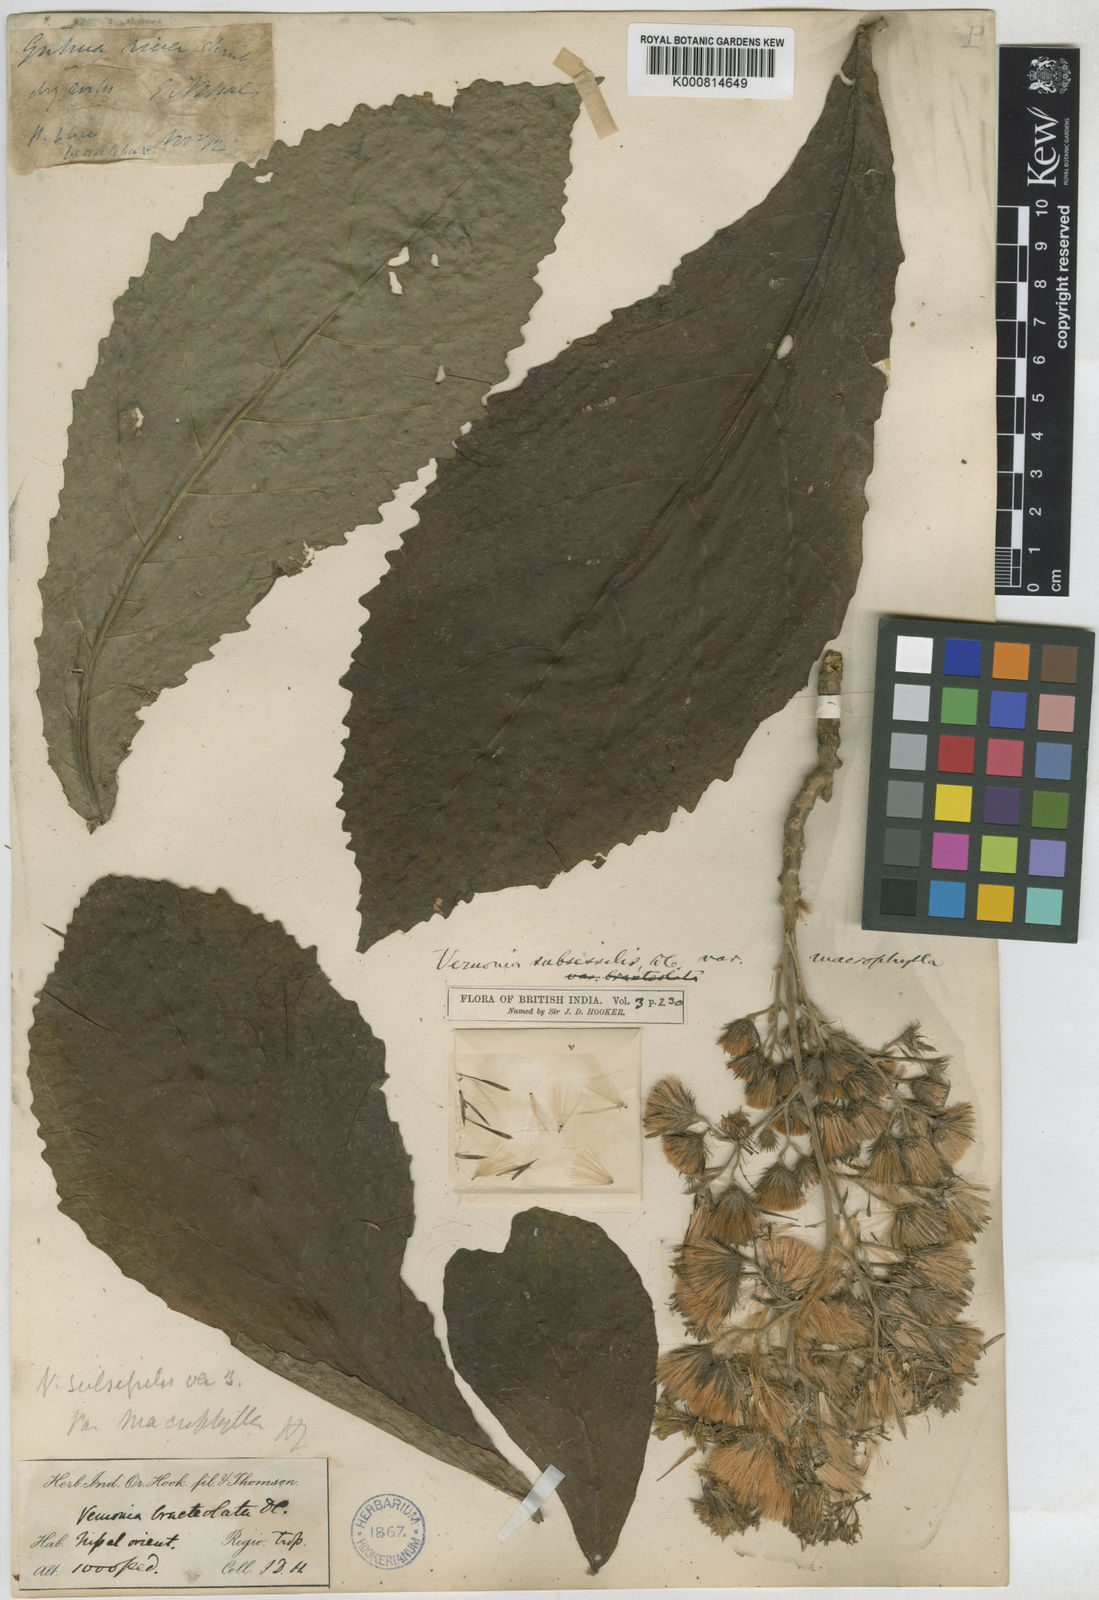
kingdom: Plantae
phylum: Tracheophyta
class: Magnoliopsida
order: Asterales
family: Asteraceae
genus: Khasianthus
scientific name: Khasianthus subsessilis
